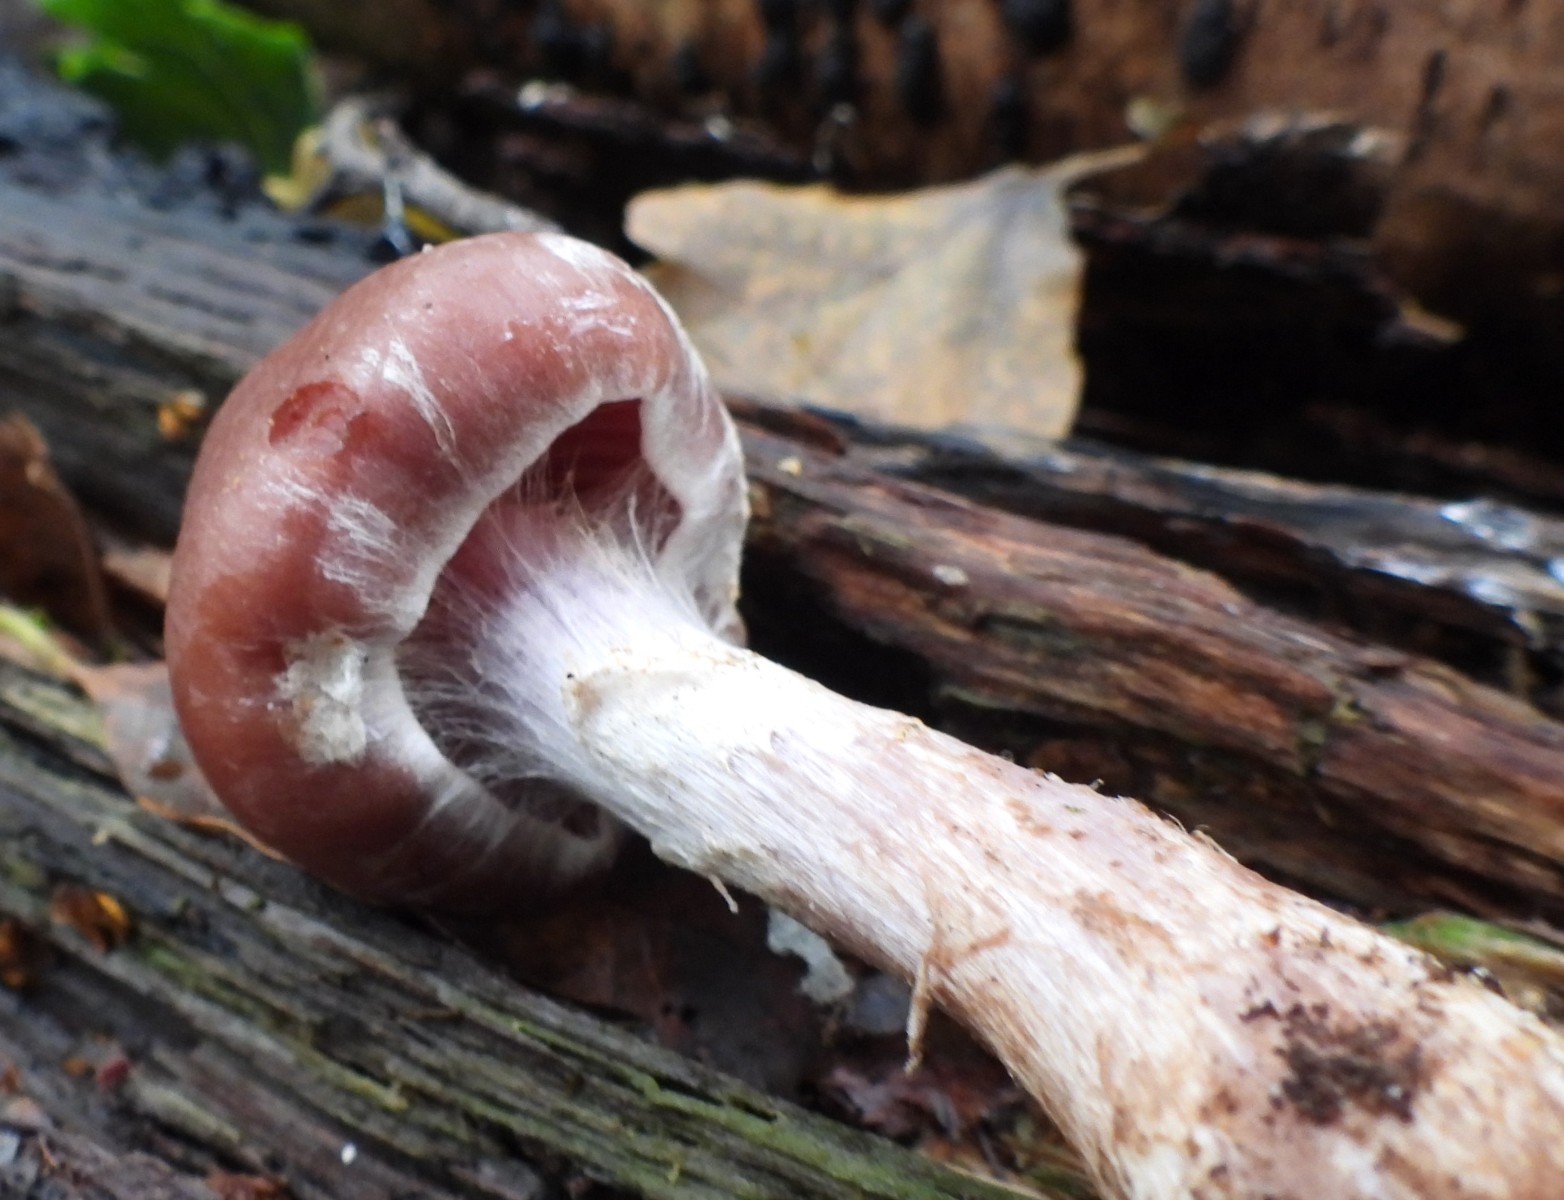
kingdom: Fungi
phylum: Basidiomycota
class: Agaricomycetes
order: Agaricales
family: Cortinariaceae
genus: Cortinarius
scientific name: Cortinarius
